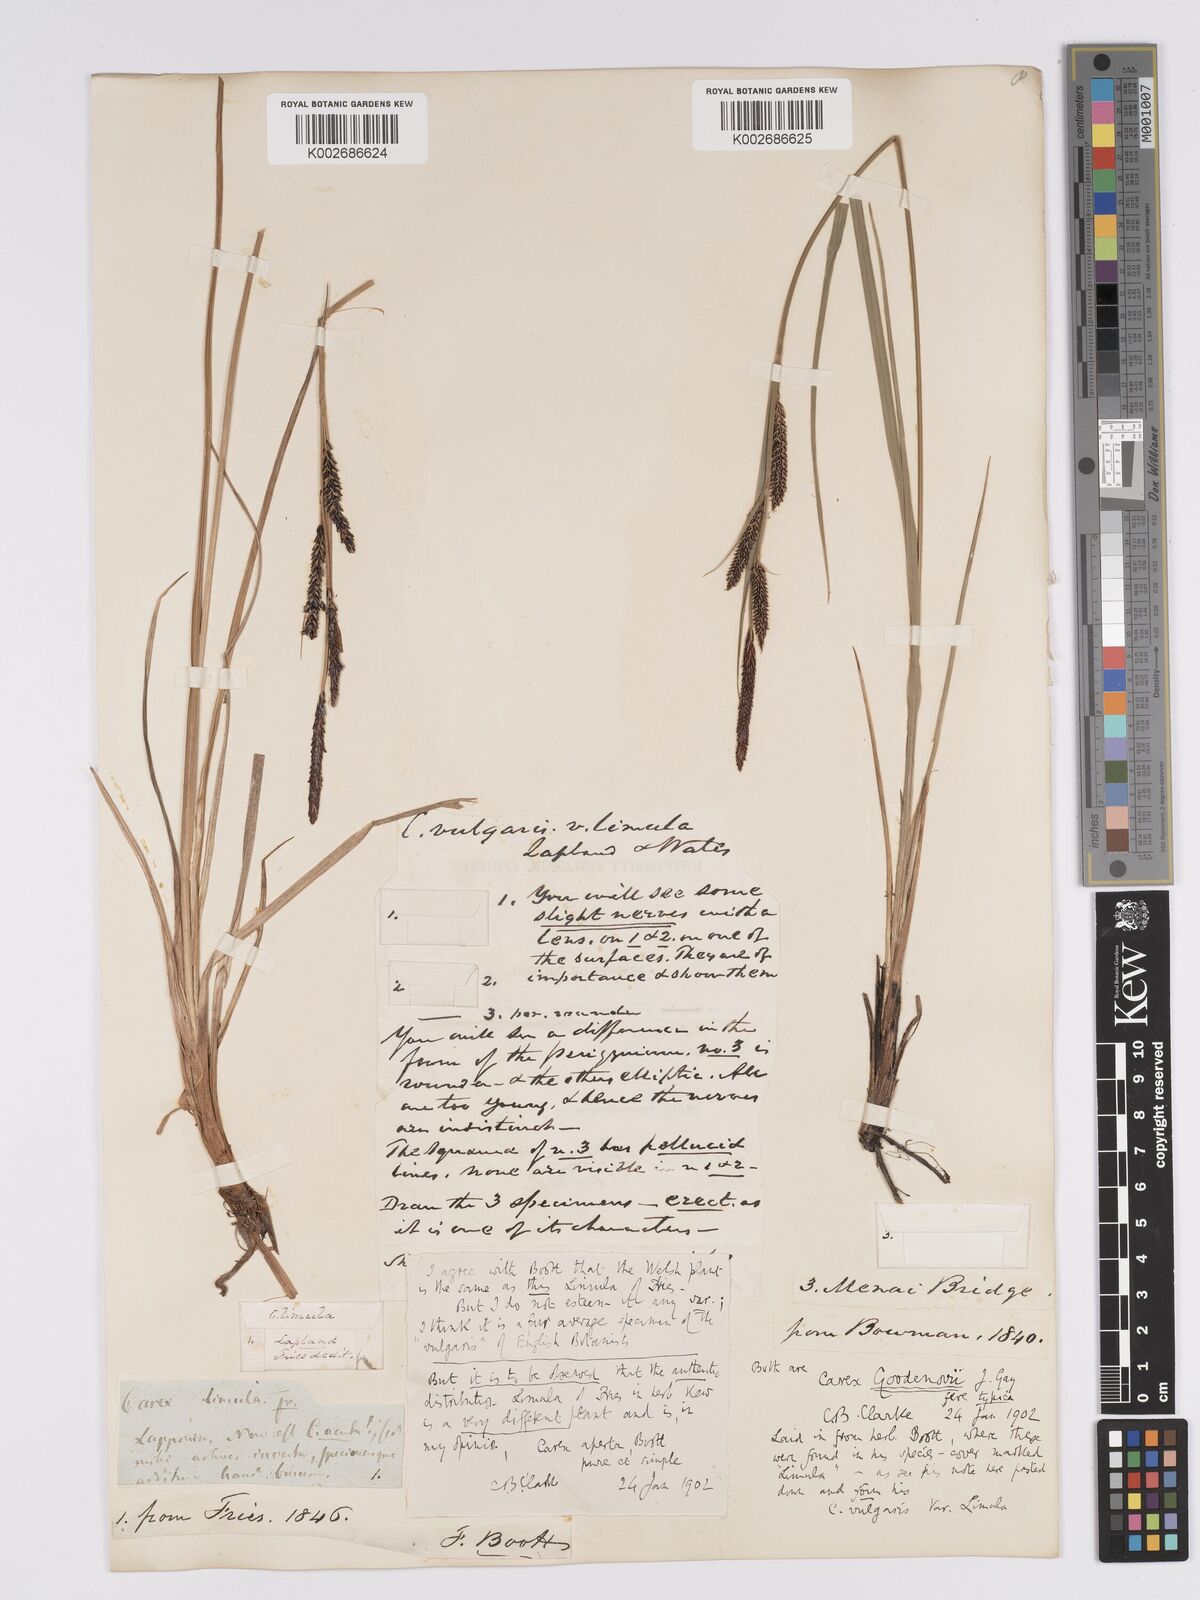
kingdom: Plantae
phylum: Tracheophyta
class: Liliopsida
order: Poales
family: Cyperaceae
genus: Carex
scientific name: Carex aquatilis
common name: Water sedge
